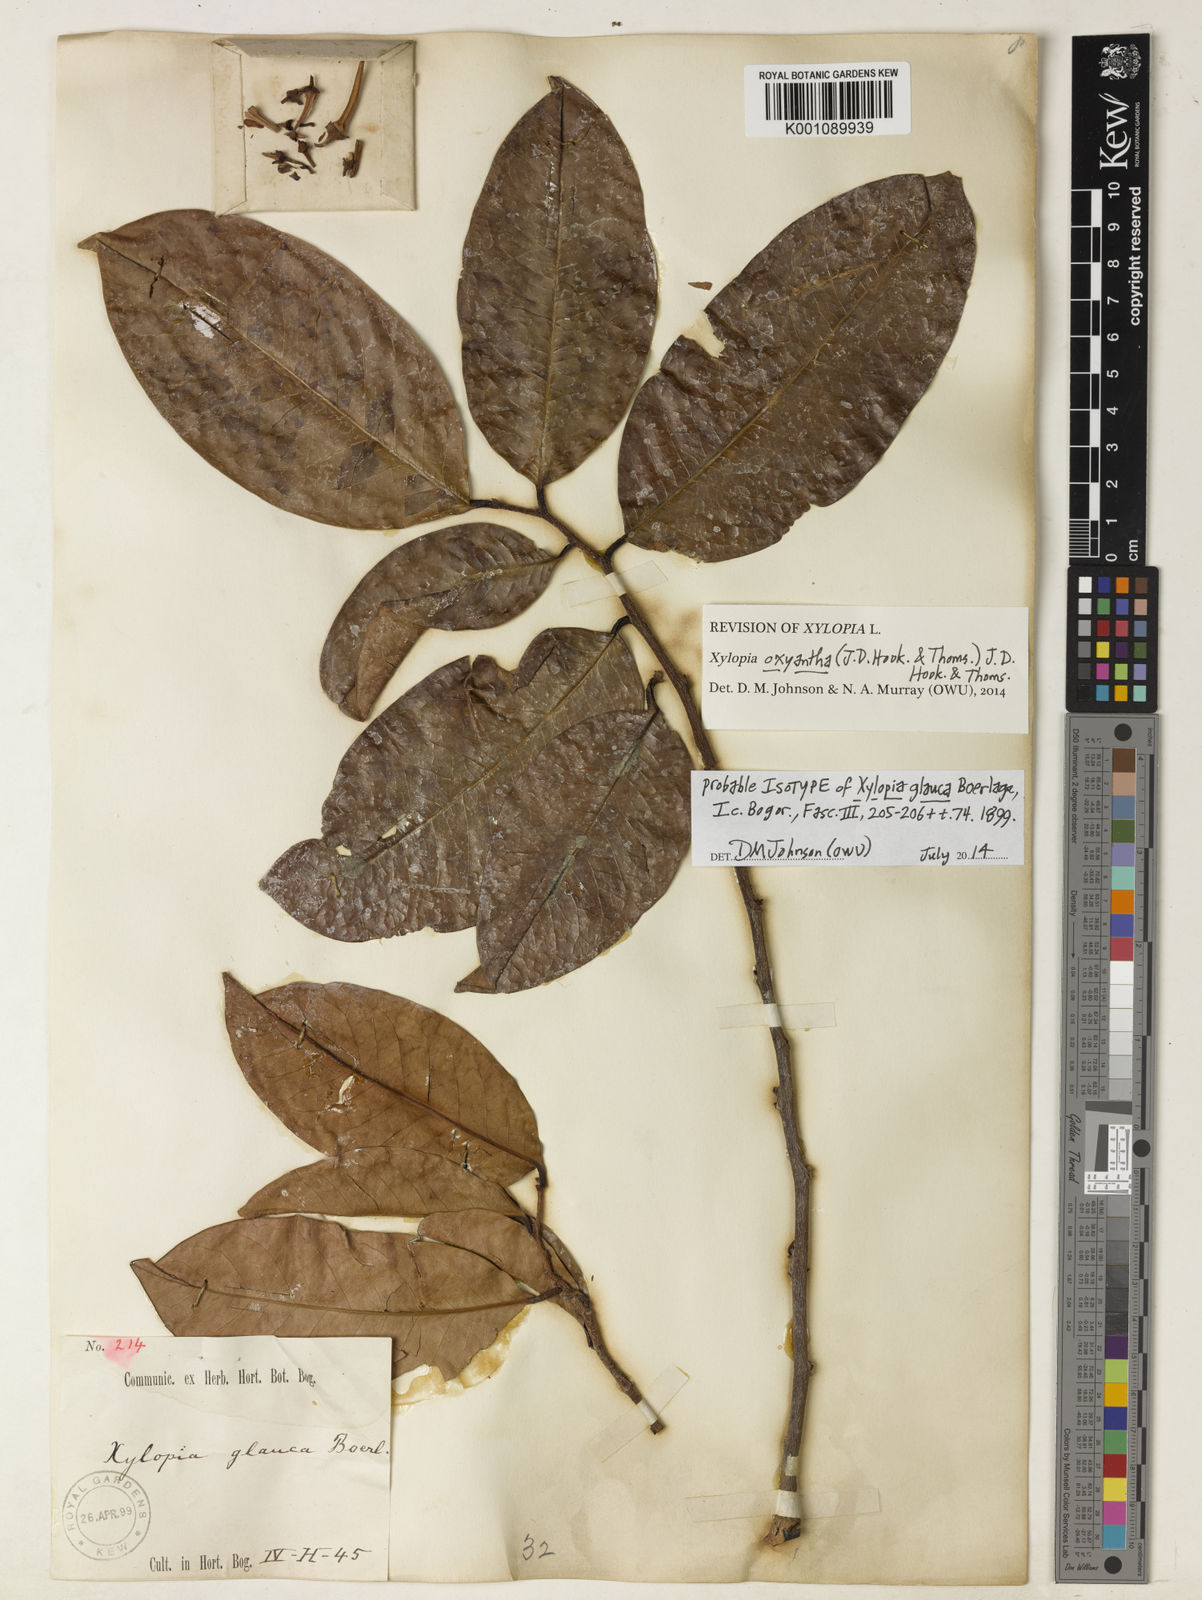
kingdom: Plantae
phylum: Tracheophyta
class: Magnoliopsida
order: Magnoliales
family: Annonaceae
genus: Xylopia
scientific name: Xylopia glauca
